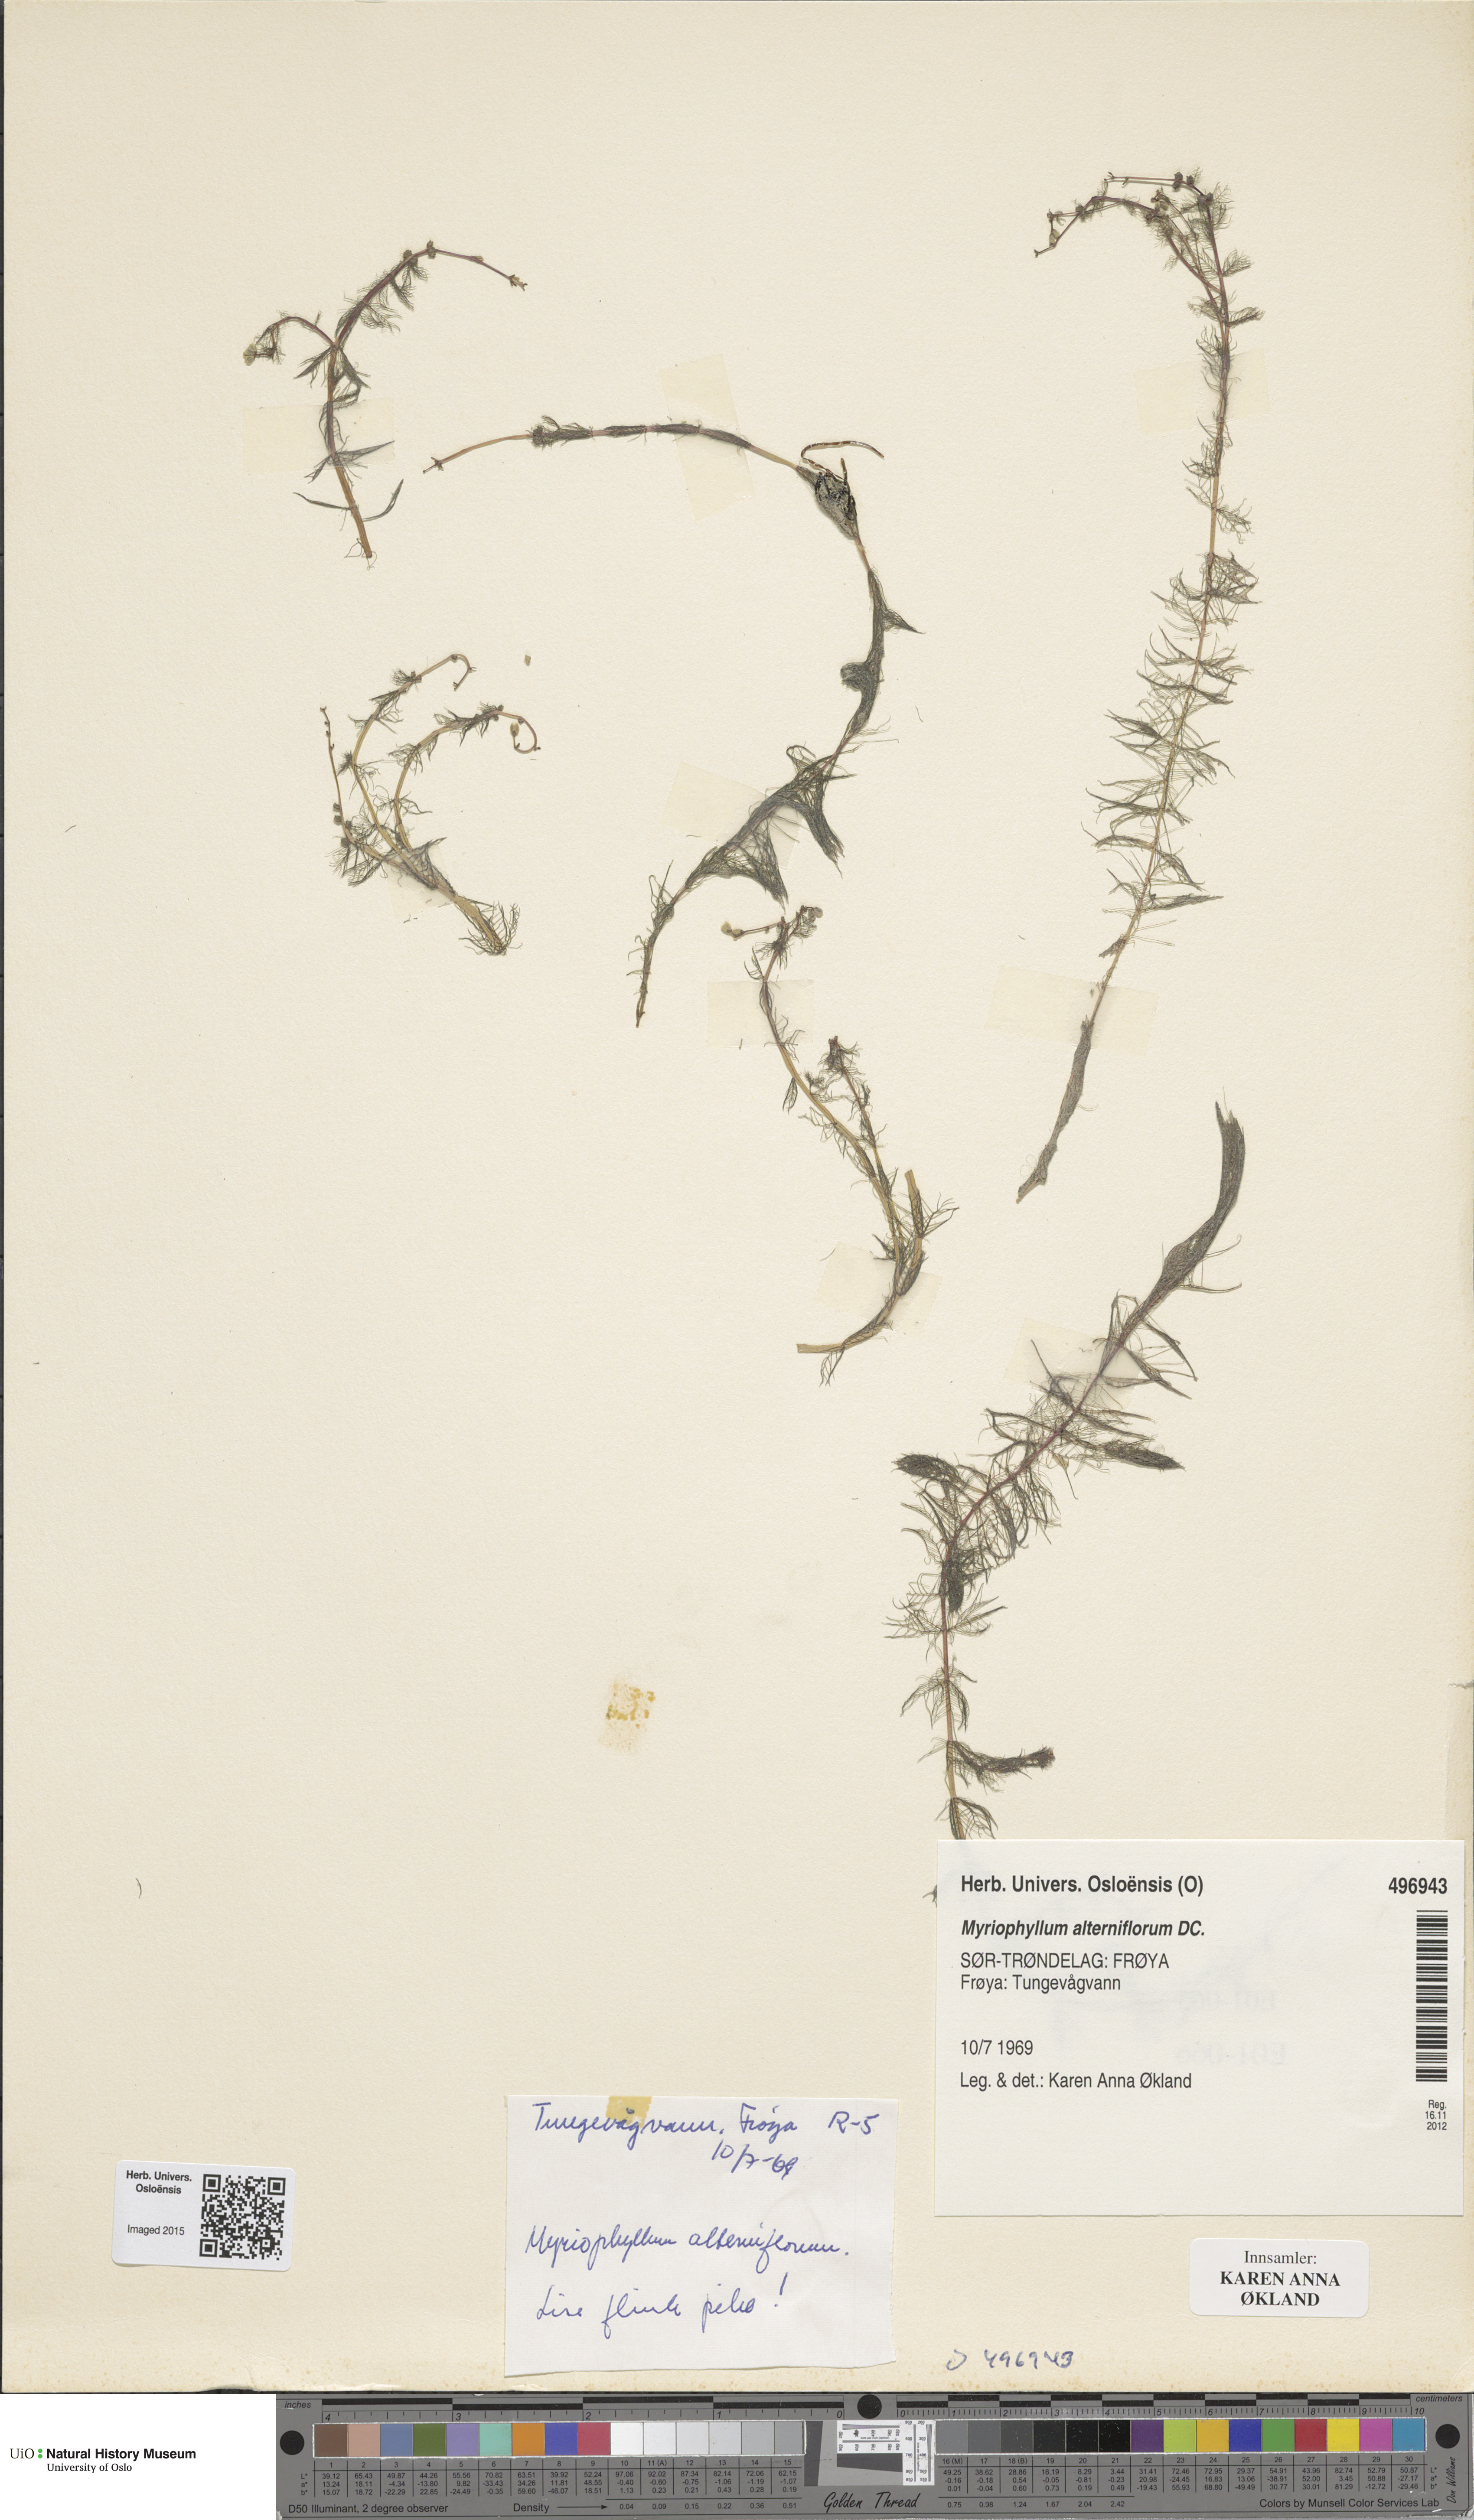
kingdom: Plantae
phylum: Tracheophyta
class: Magnoliopsida
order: Saxifragales
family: Haloragaceae
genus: Myriophyllum
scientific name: Myriophyllum alterniflorum
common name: Alternate water-milfoil
